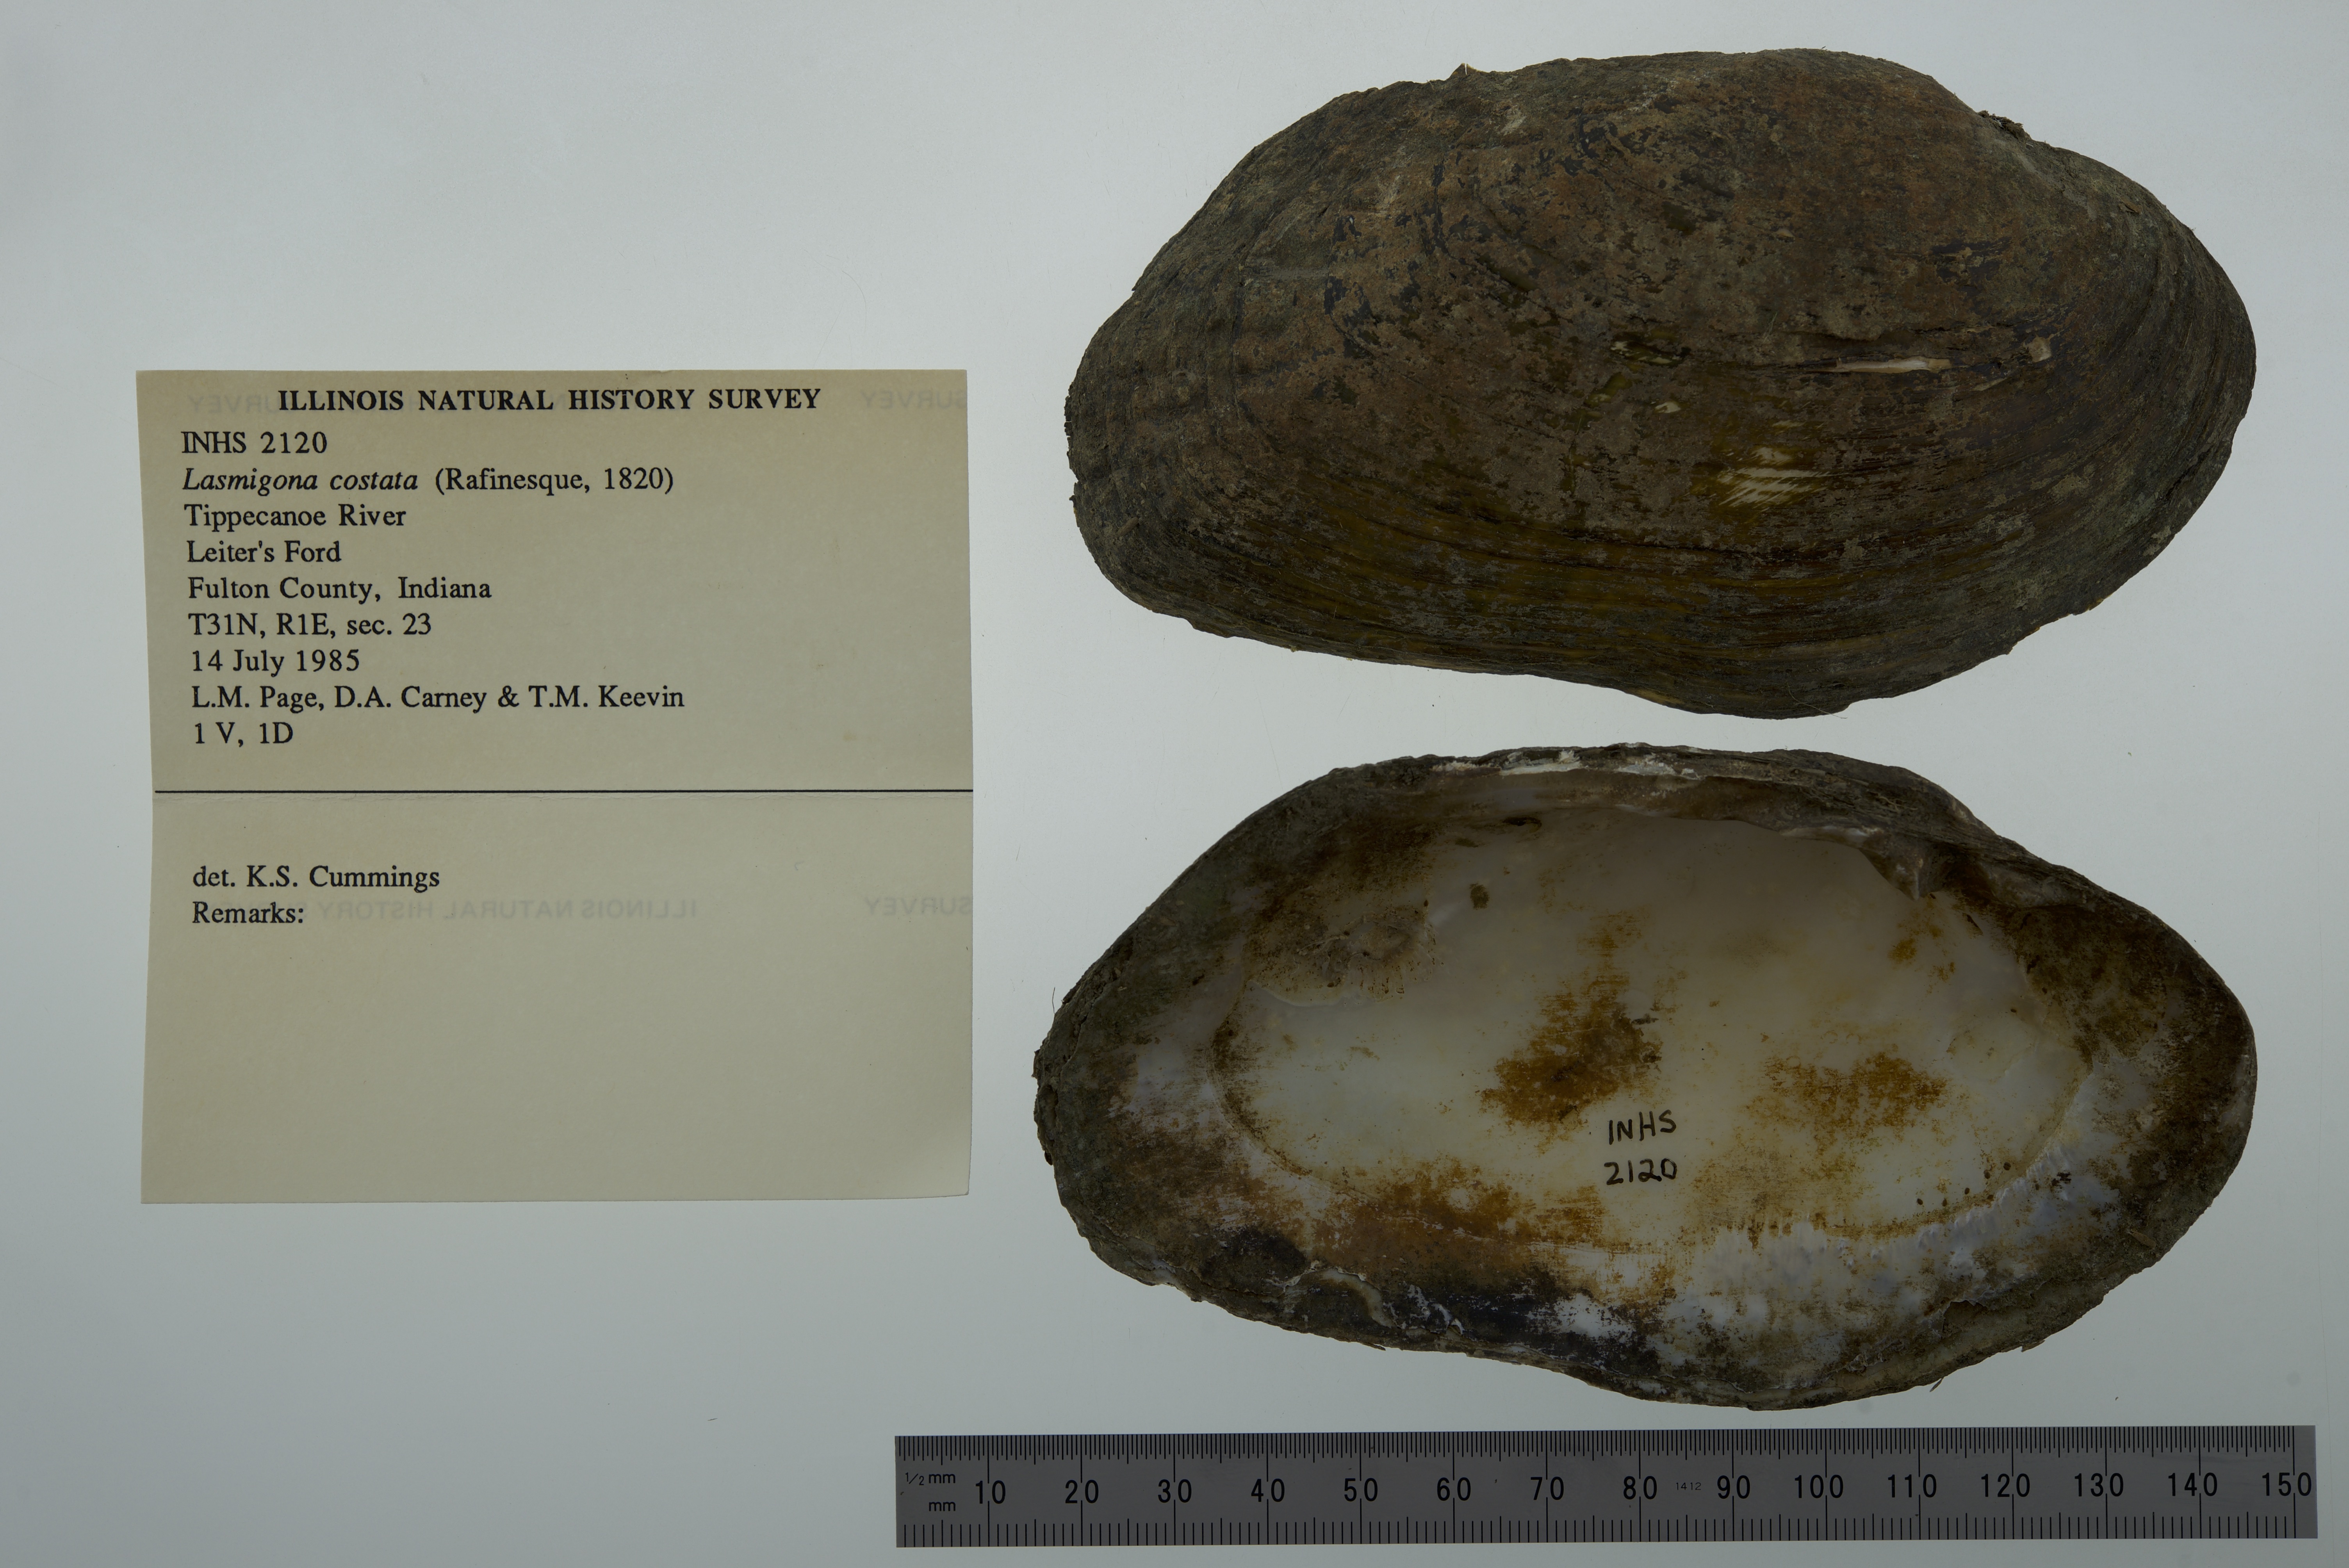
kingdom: Animalia
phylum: Mollusca
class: Bivalvia
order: Unionida
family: Unionidae
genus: Lasmigona
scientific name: Lasmigona costata
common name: Flutedshell
